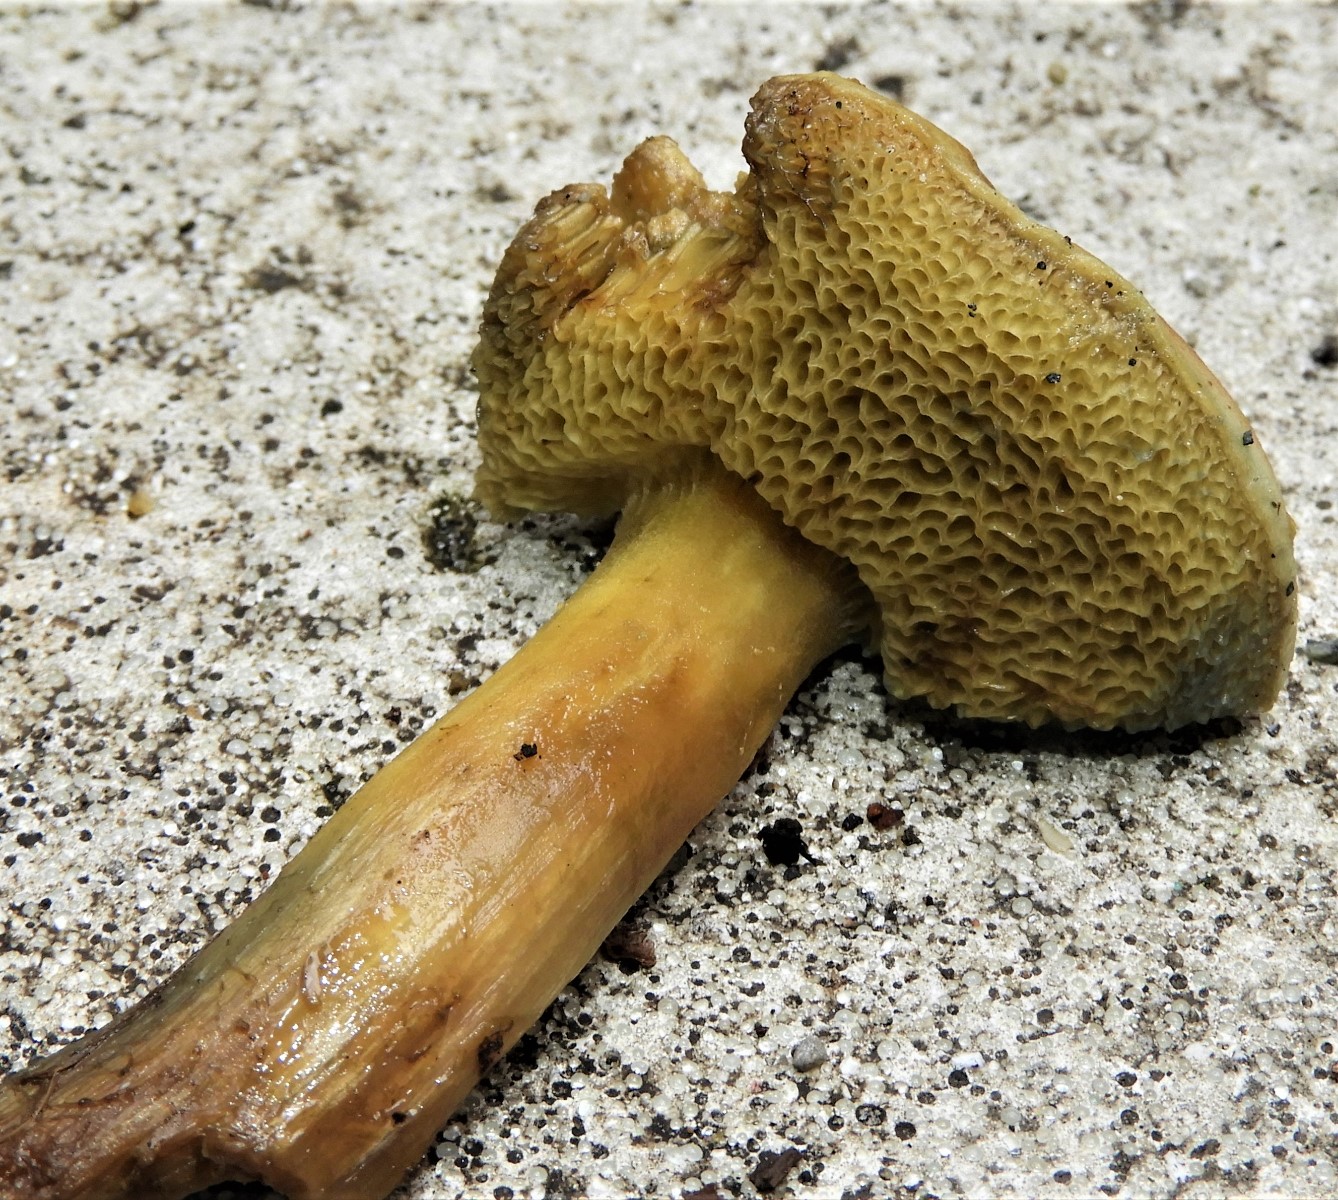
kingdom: Fungi
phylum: Basidiomycota
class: Agaricomycetes
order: Boletales
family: Boletaceae
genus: Xerocomus
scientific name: Xerocomus
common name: filtrørhat
